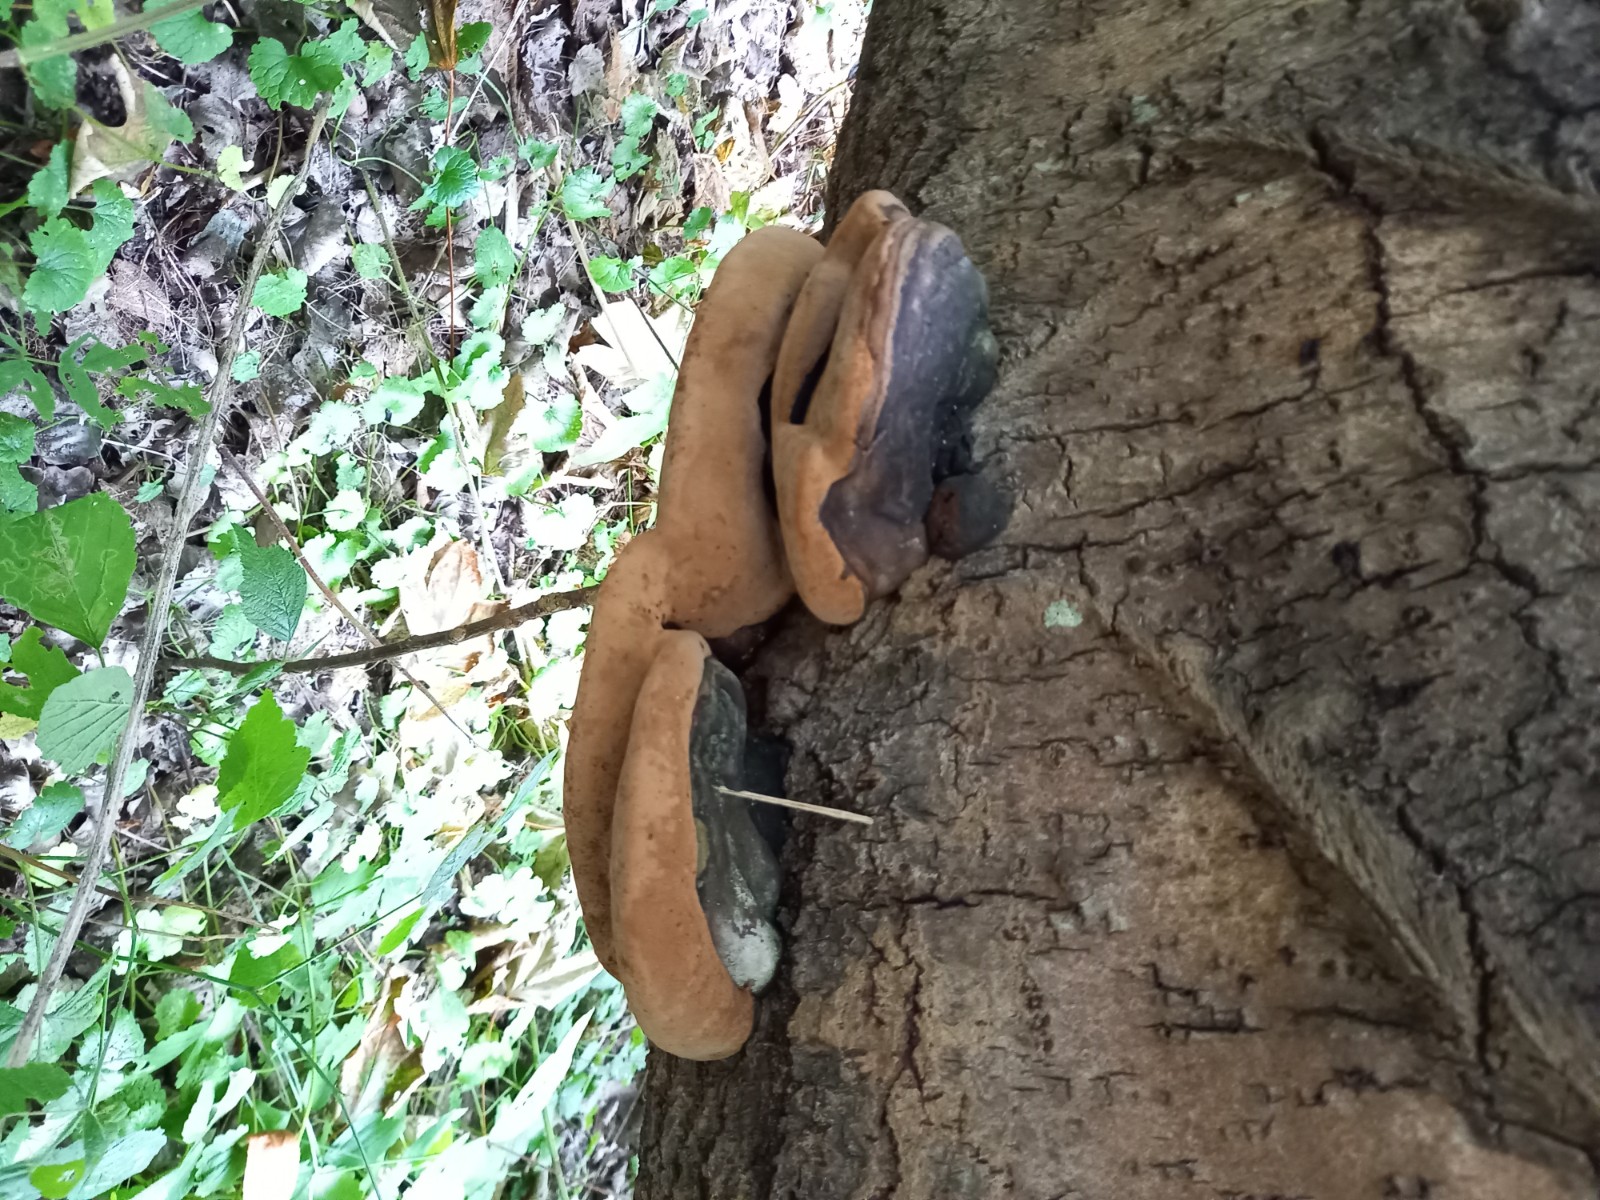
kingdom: Fungi
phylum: Basidiomycota
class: Agaricomycetes
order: Hymenochaetales
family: Hymenochaetaceae
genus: Phellinus
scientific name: Phellinus populicola
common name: poppel-ildporesvamp
